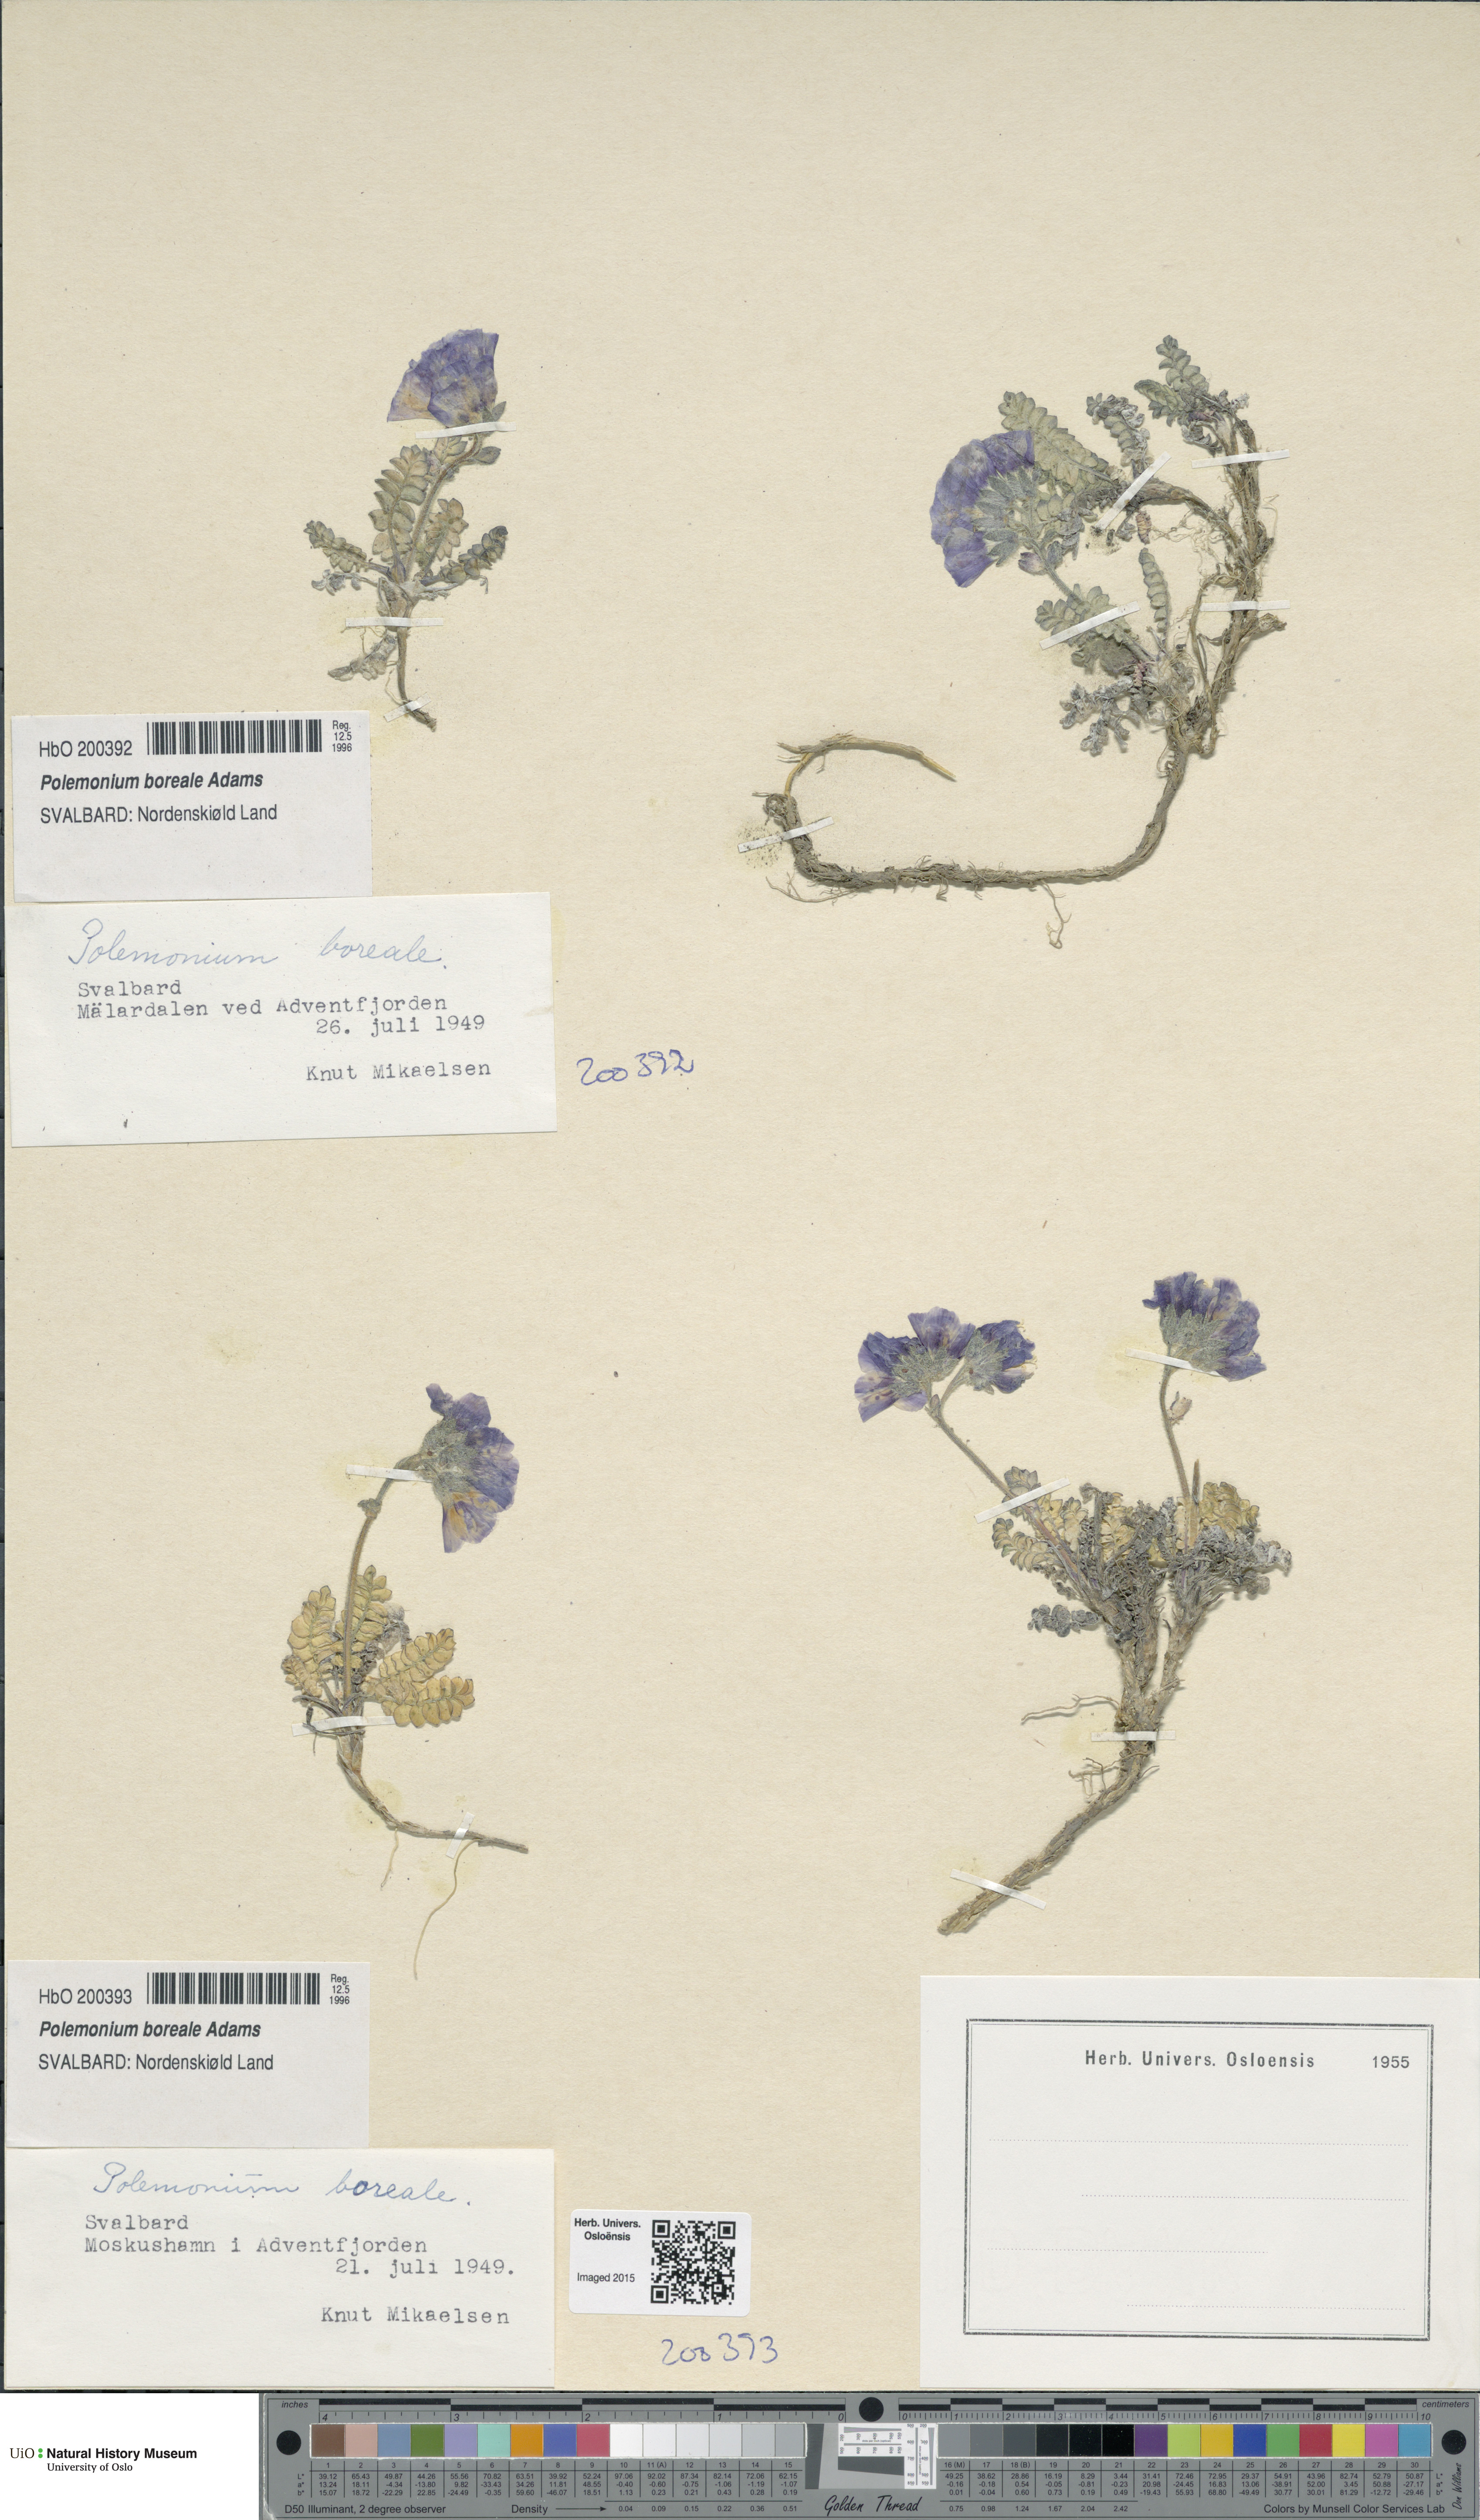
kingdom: Plantae
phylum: Tracheophyta
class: Magnoliopsida
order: Ericales
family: Polemoniaceae
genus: Polemonium
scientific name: Polemonium boreale
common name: Boreal jacob's-ladder
